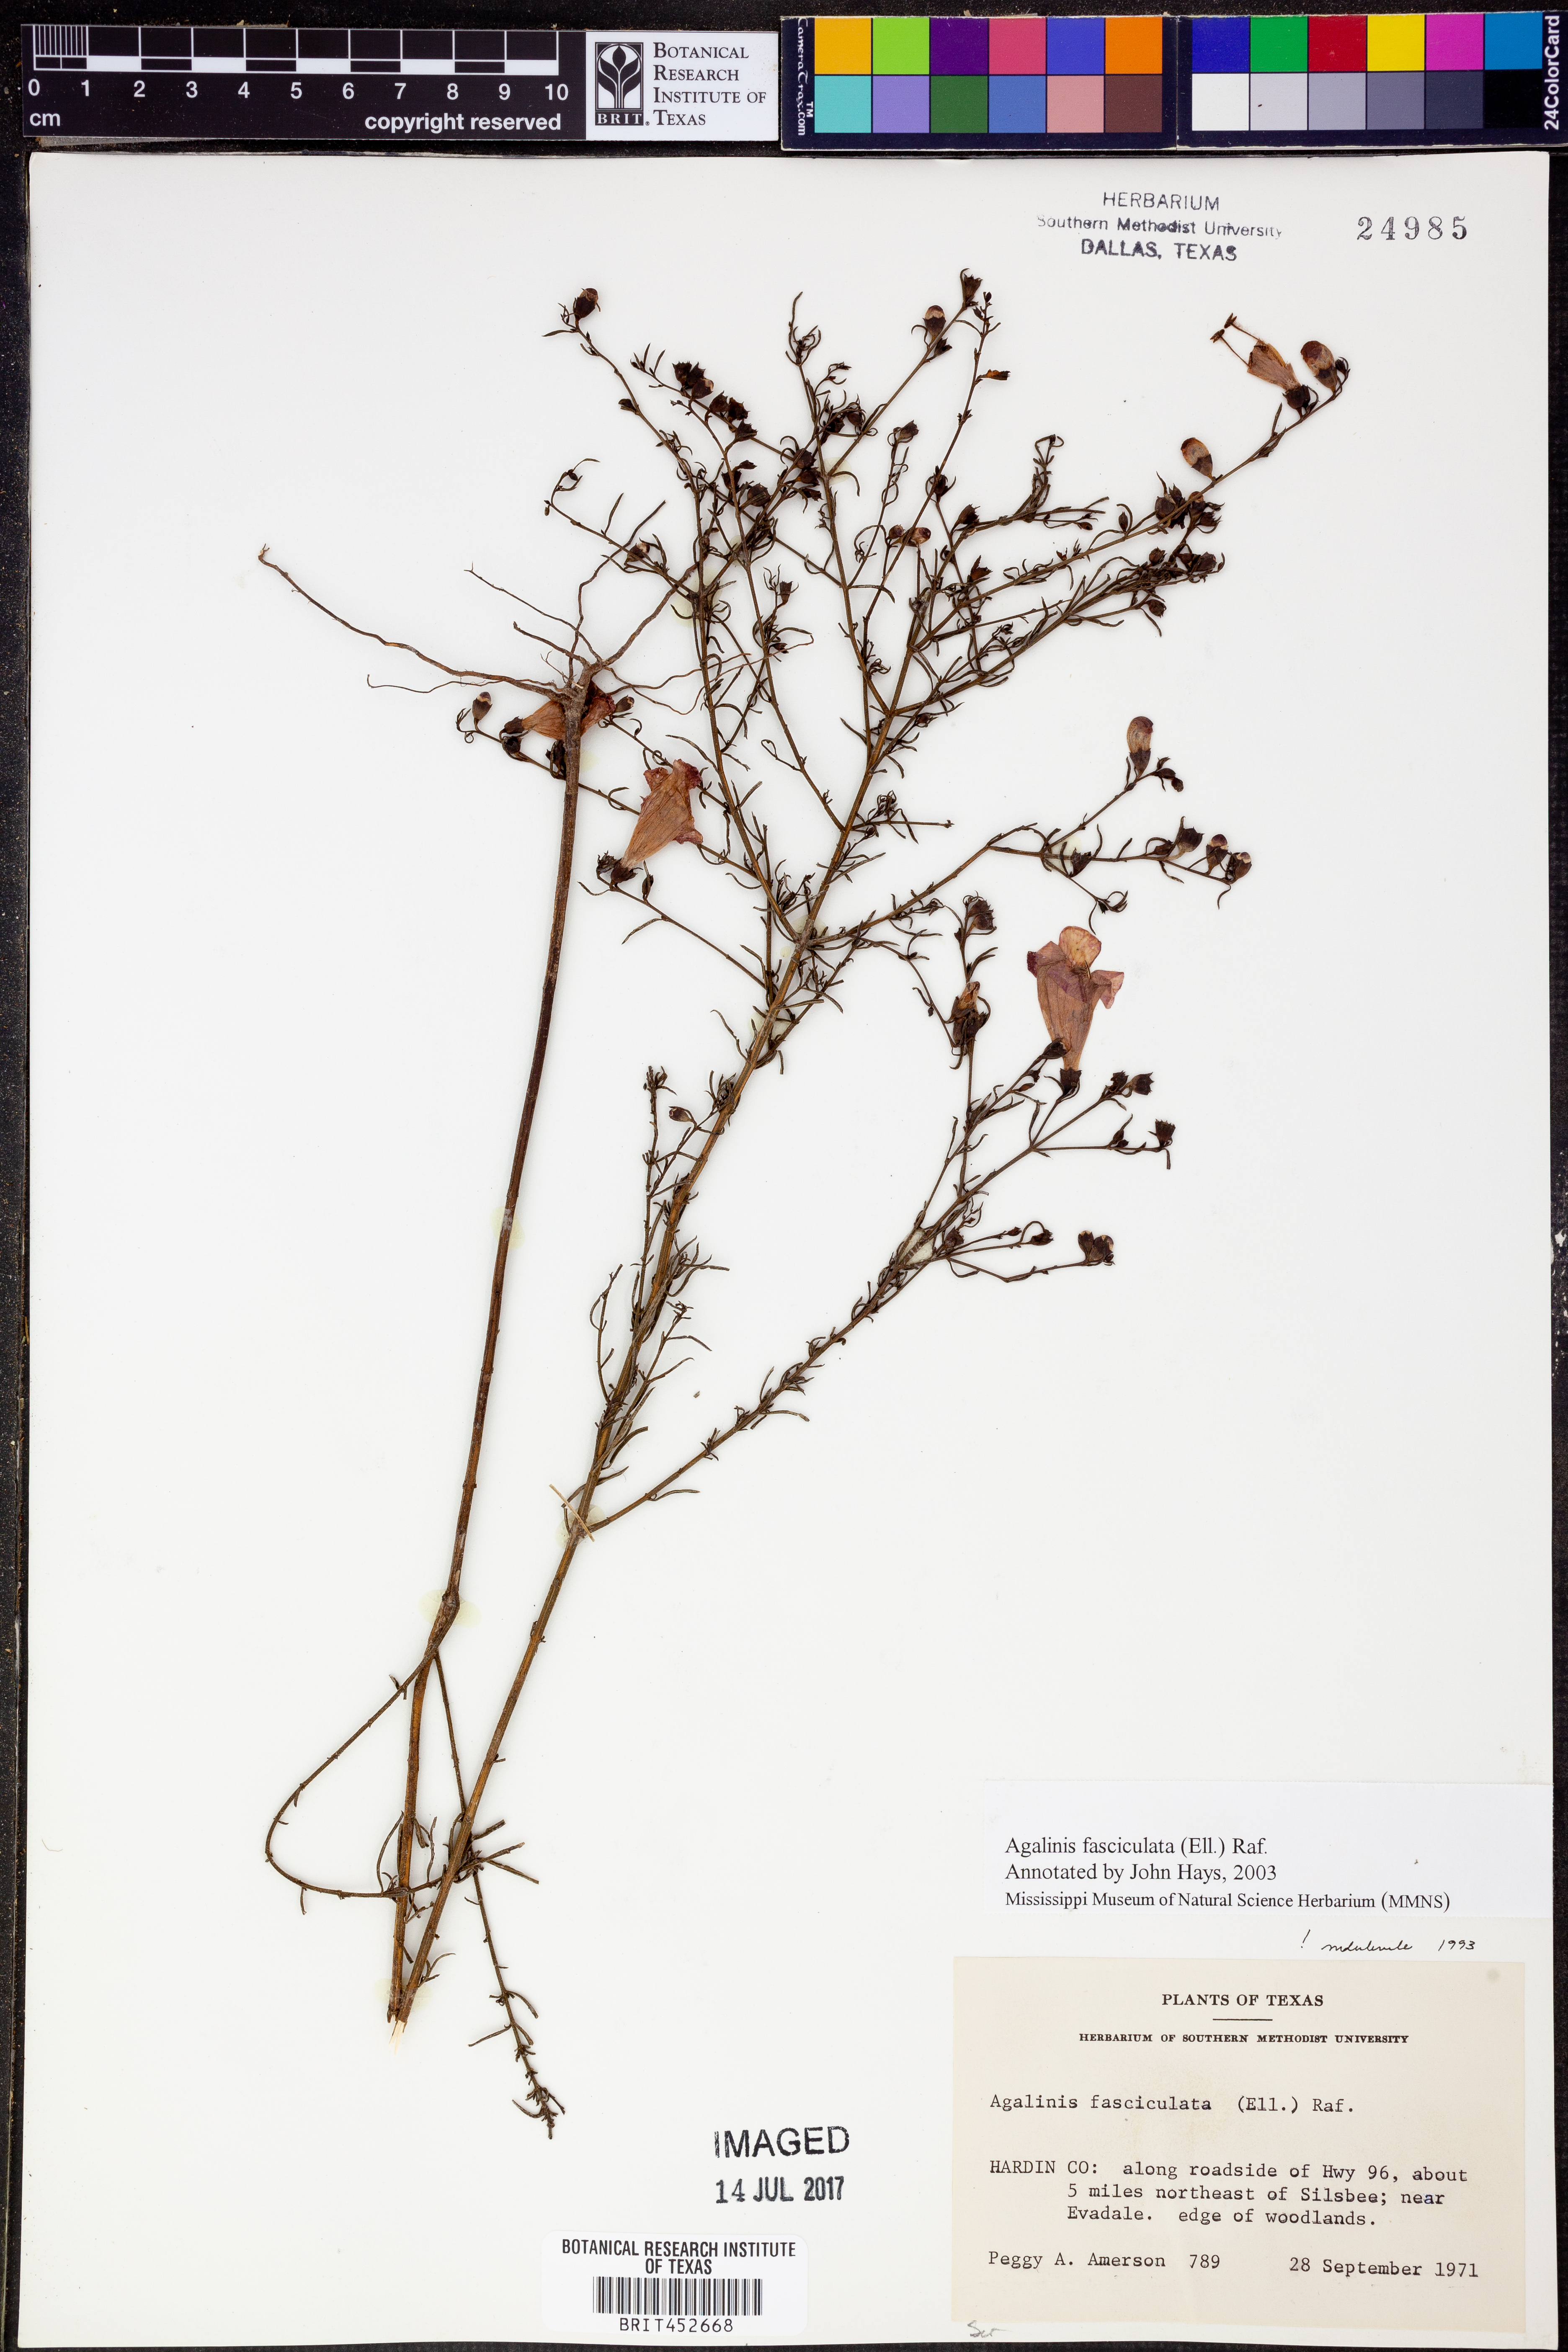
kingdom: Plantae
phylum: Tracheophyta
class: Magnoliopsida
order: Lamiales
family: Orobanchaceae
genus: Agalinis
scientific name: Agalinis fasciculata
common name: Beach false foxglove
